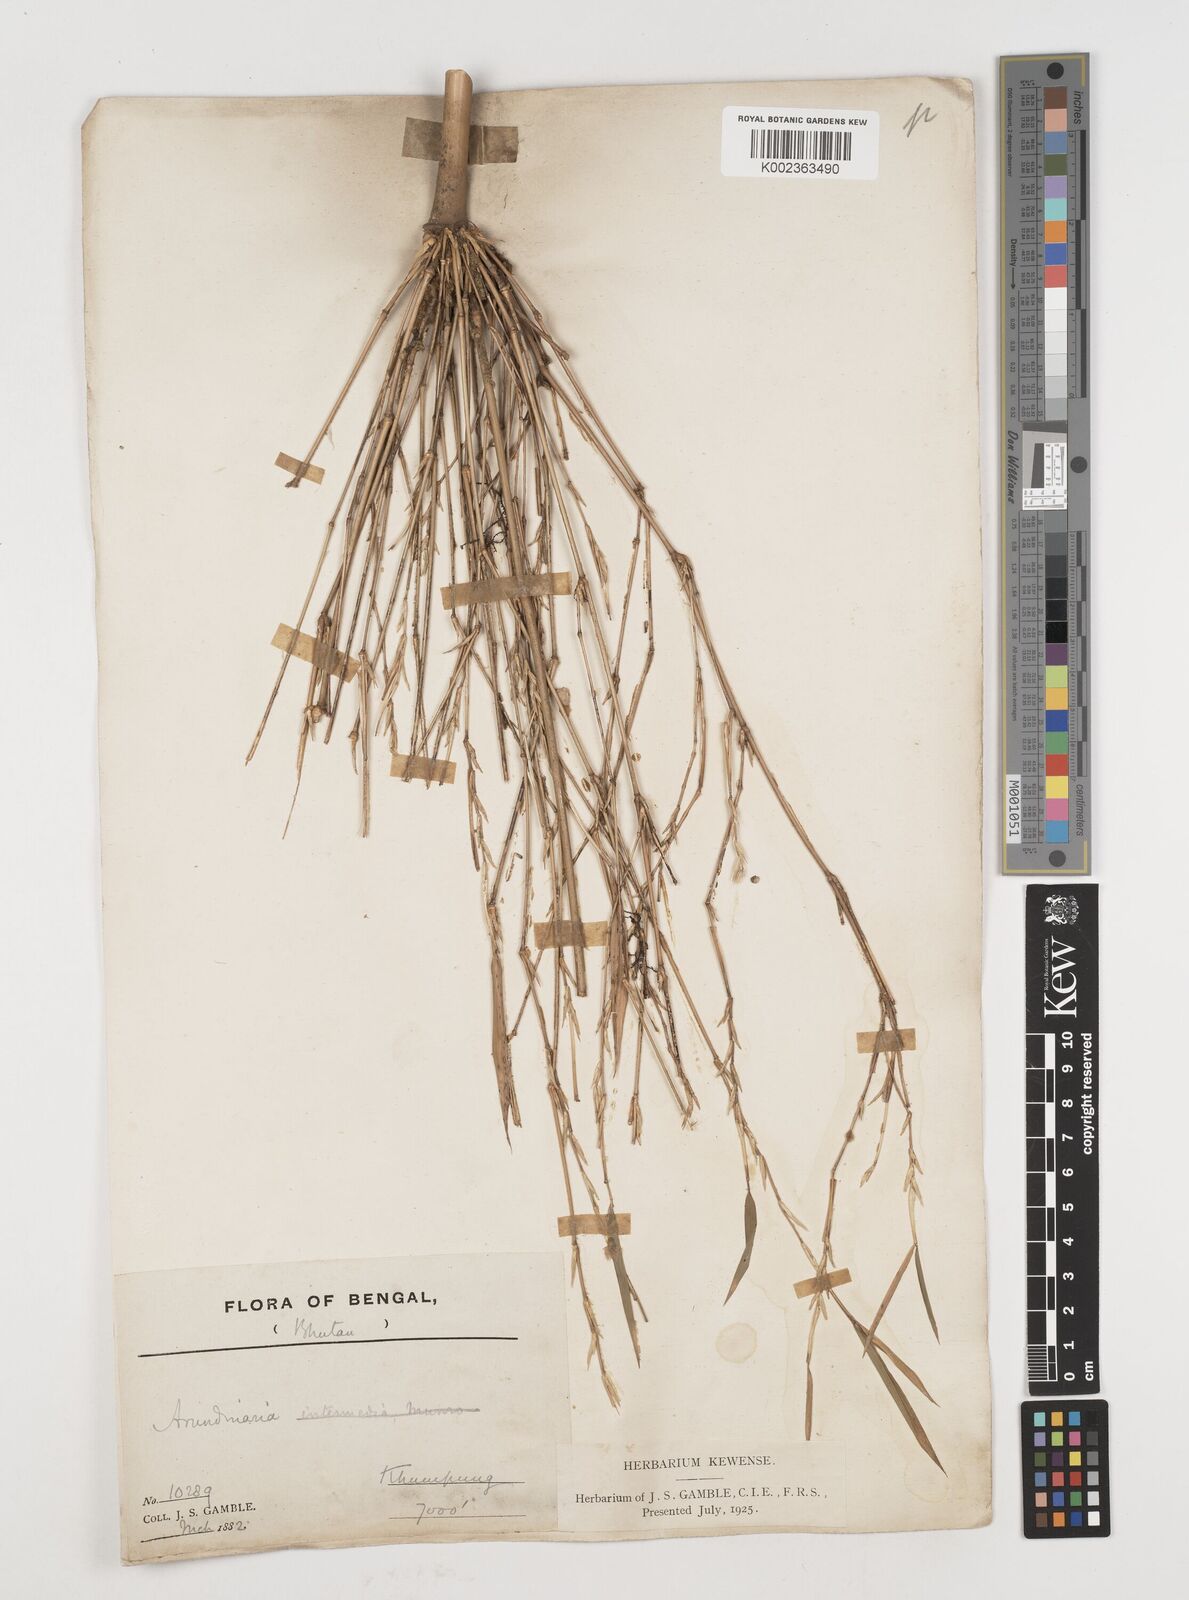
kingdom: Plantae
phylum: Tracheophyta
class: Liliopsida
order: Poales
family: Poaceae
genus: Himalayacalamus
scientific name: Himalayacalamus
